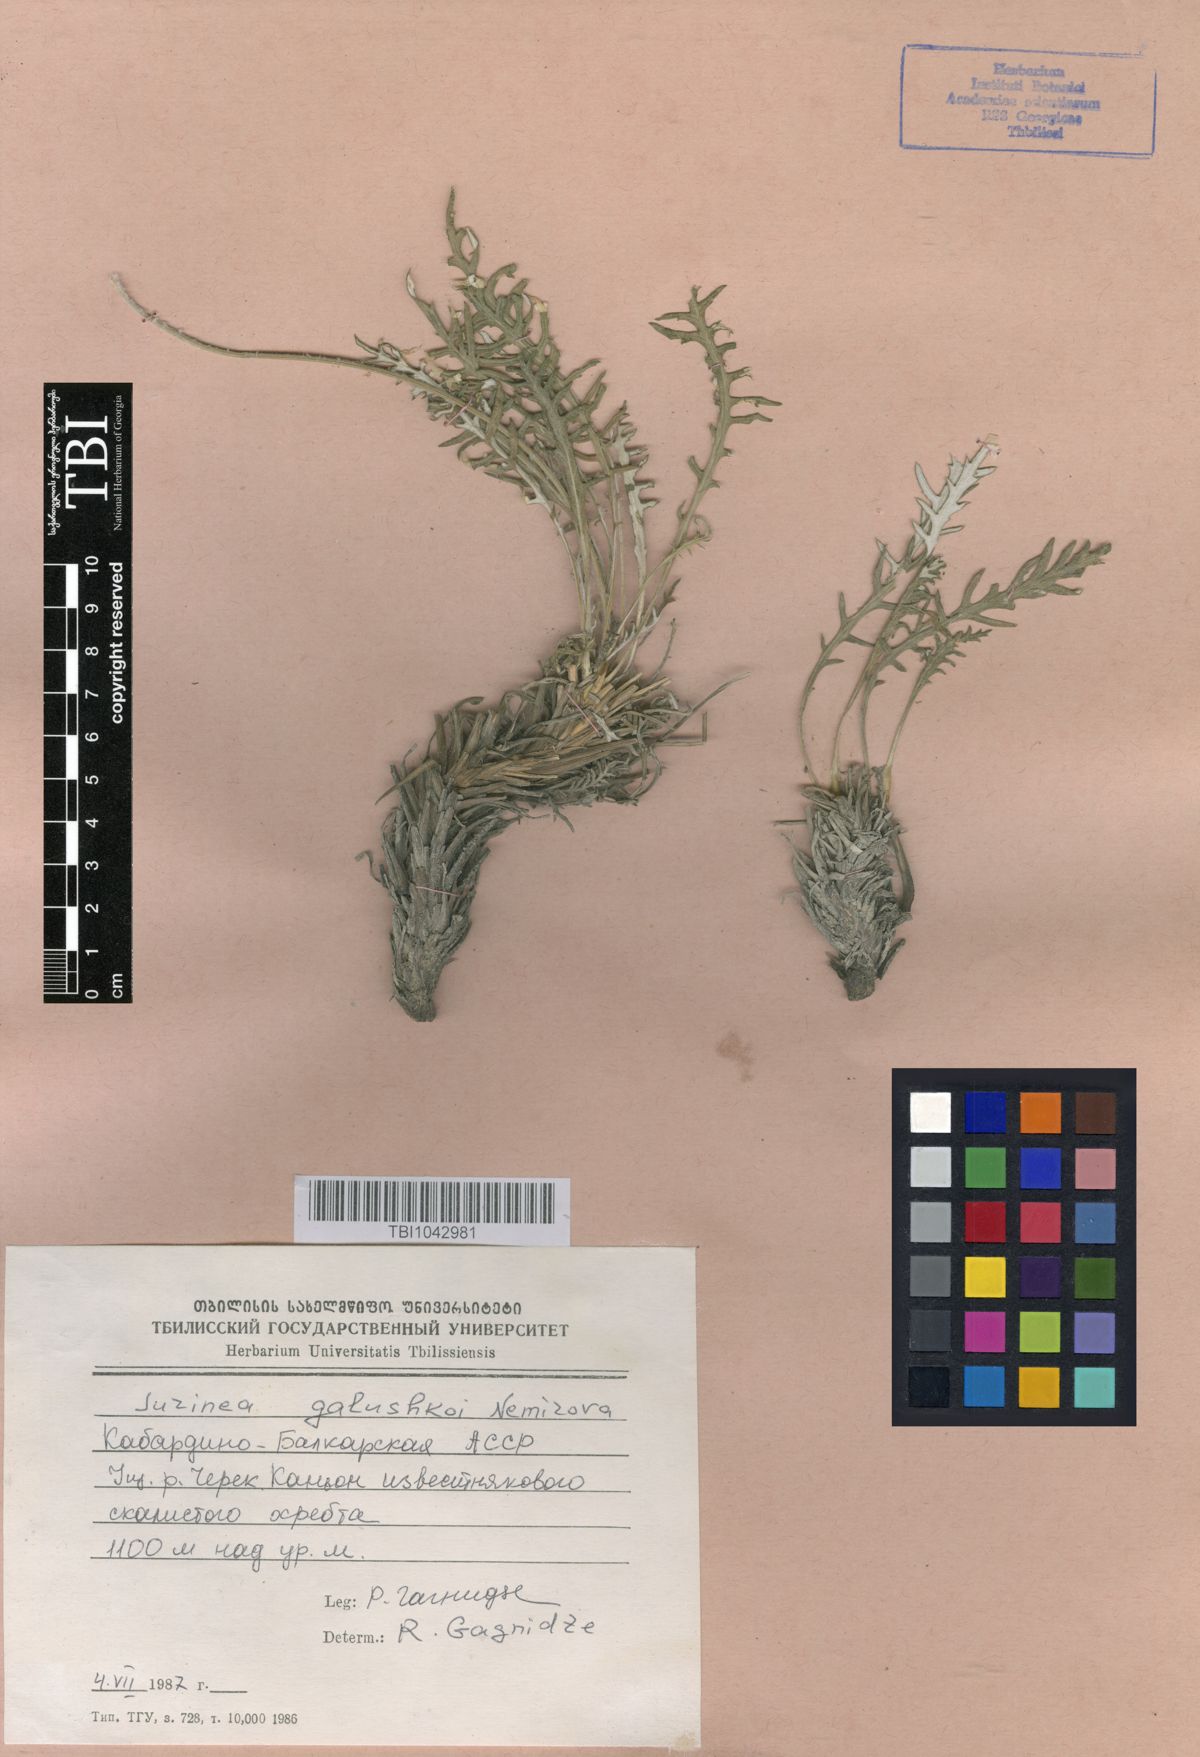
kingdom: Plantae
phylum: Tracheophyta
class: Magnoliopsida
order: Asterales
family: Asteraceae
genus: Jurinea
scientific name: Jurinea galushkoi
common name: Galushko's jurinea
